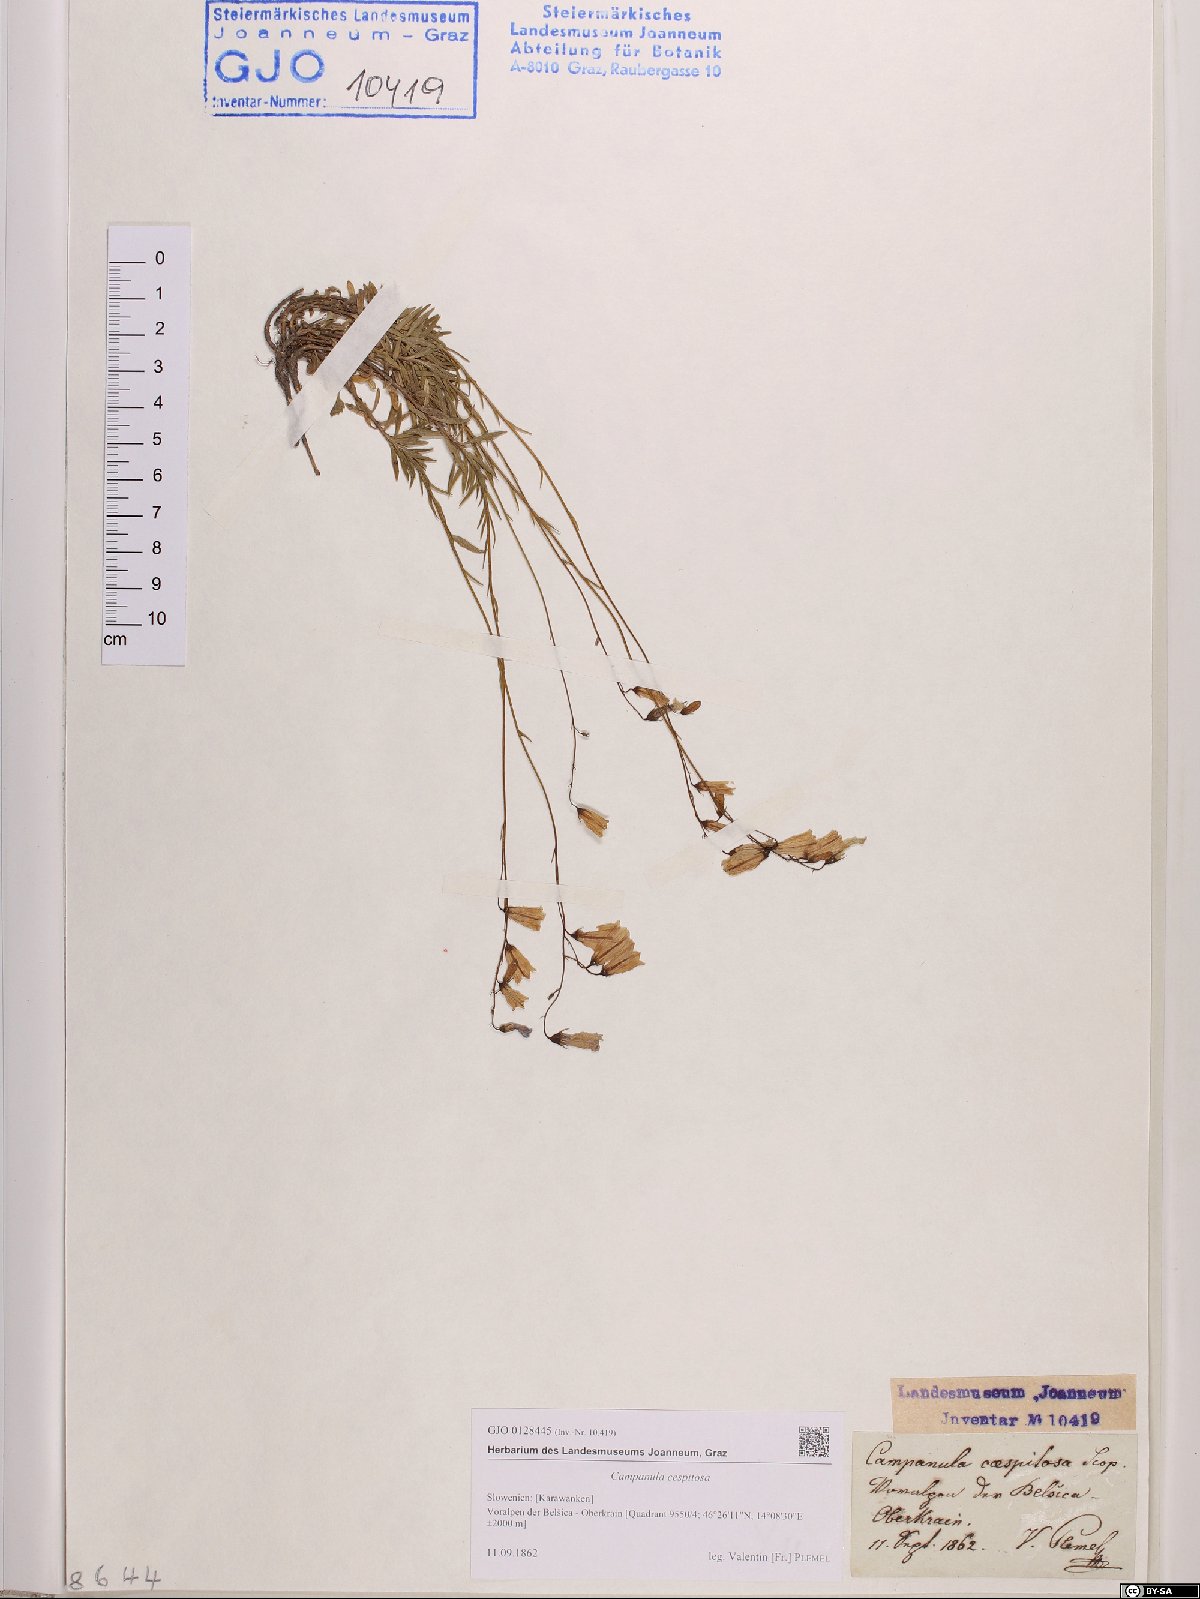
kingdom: Plantae
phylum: Tracheophyta
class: Magnoliopsida
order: Asterales
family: Campanulaceae
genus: Campanula
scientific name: Campanula cespitosa
